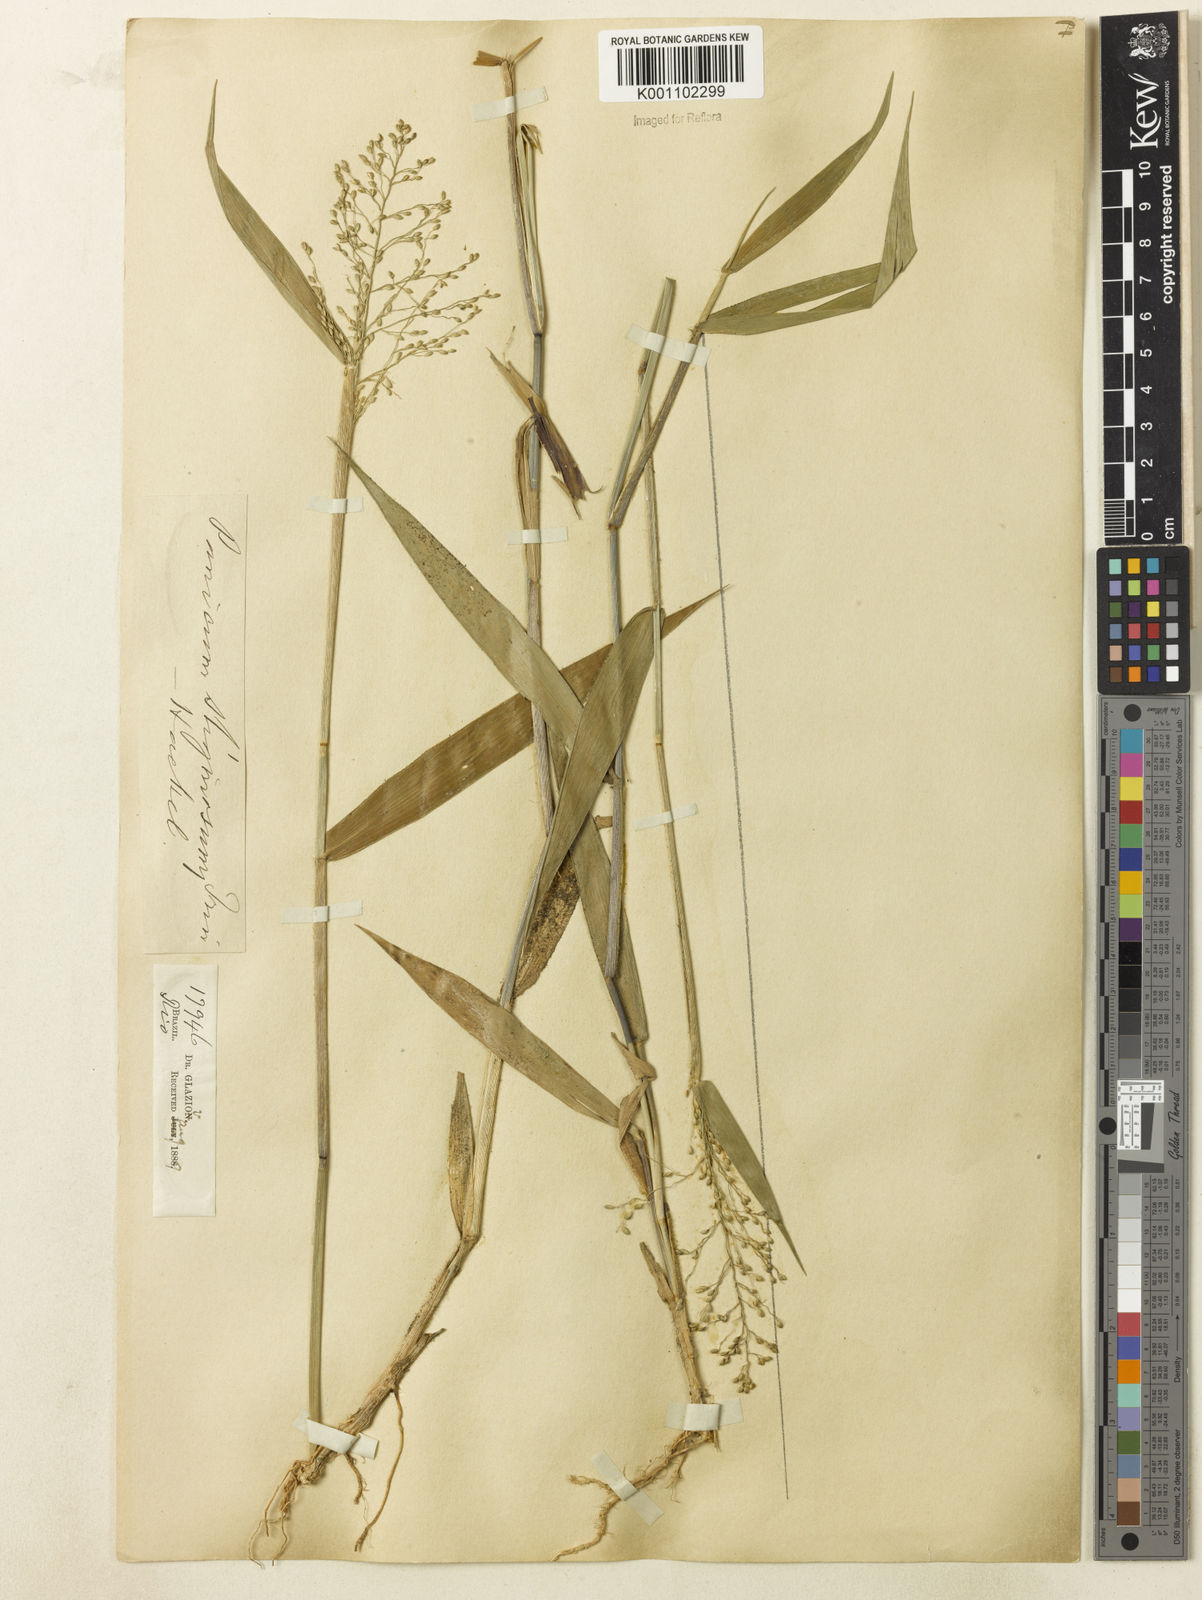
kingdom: Plantae
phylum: Tracheophyta
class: Liliopsida
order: Poales
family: Poaceae
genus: Dichanthelium
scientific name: Dichanthelium stigmosum
